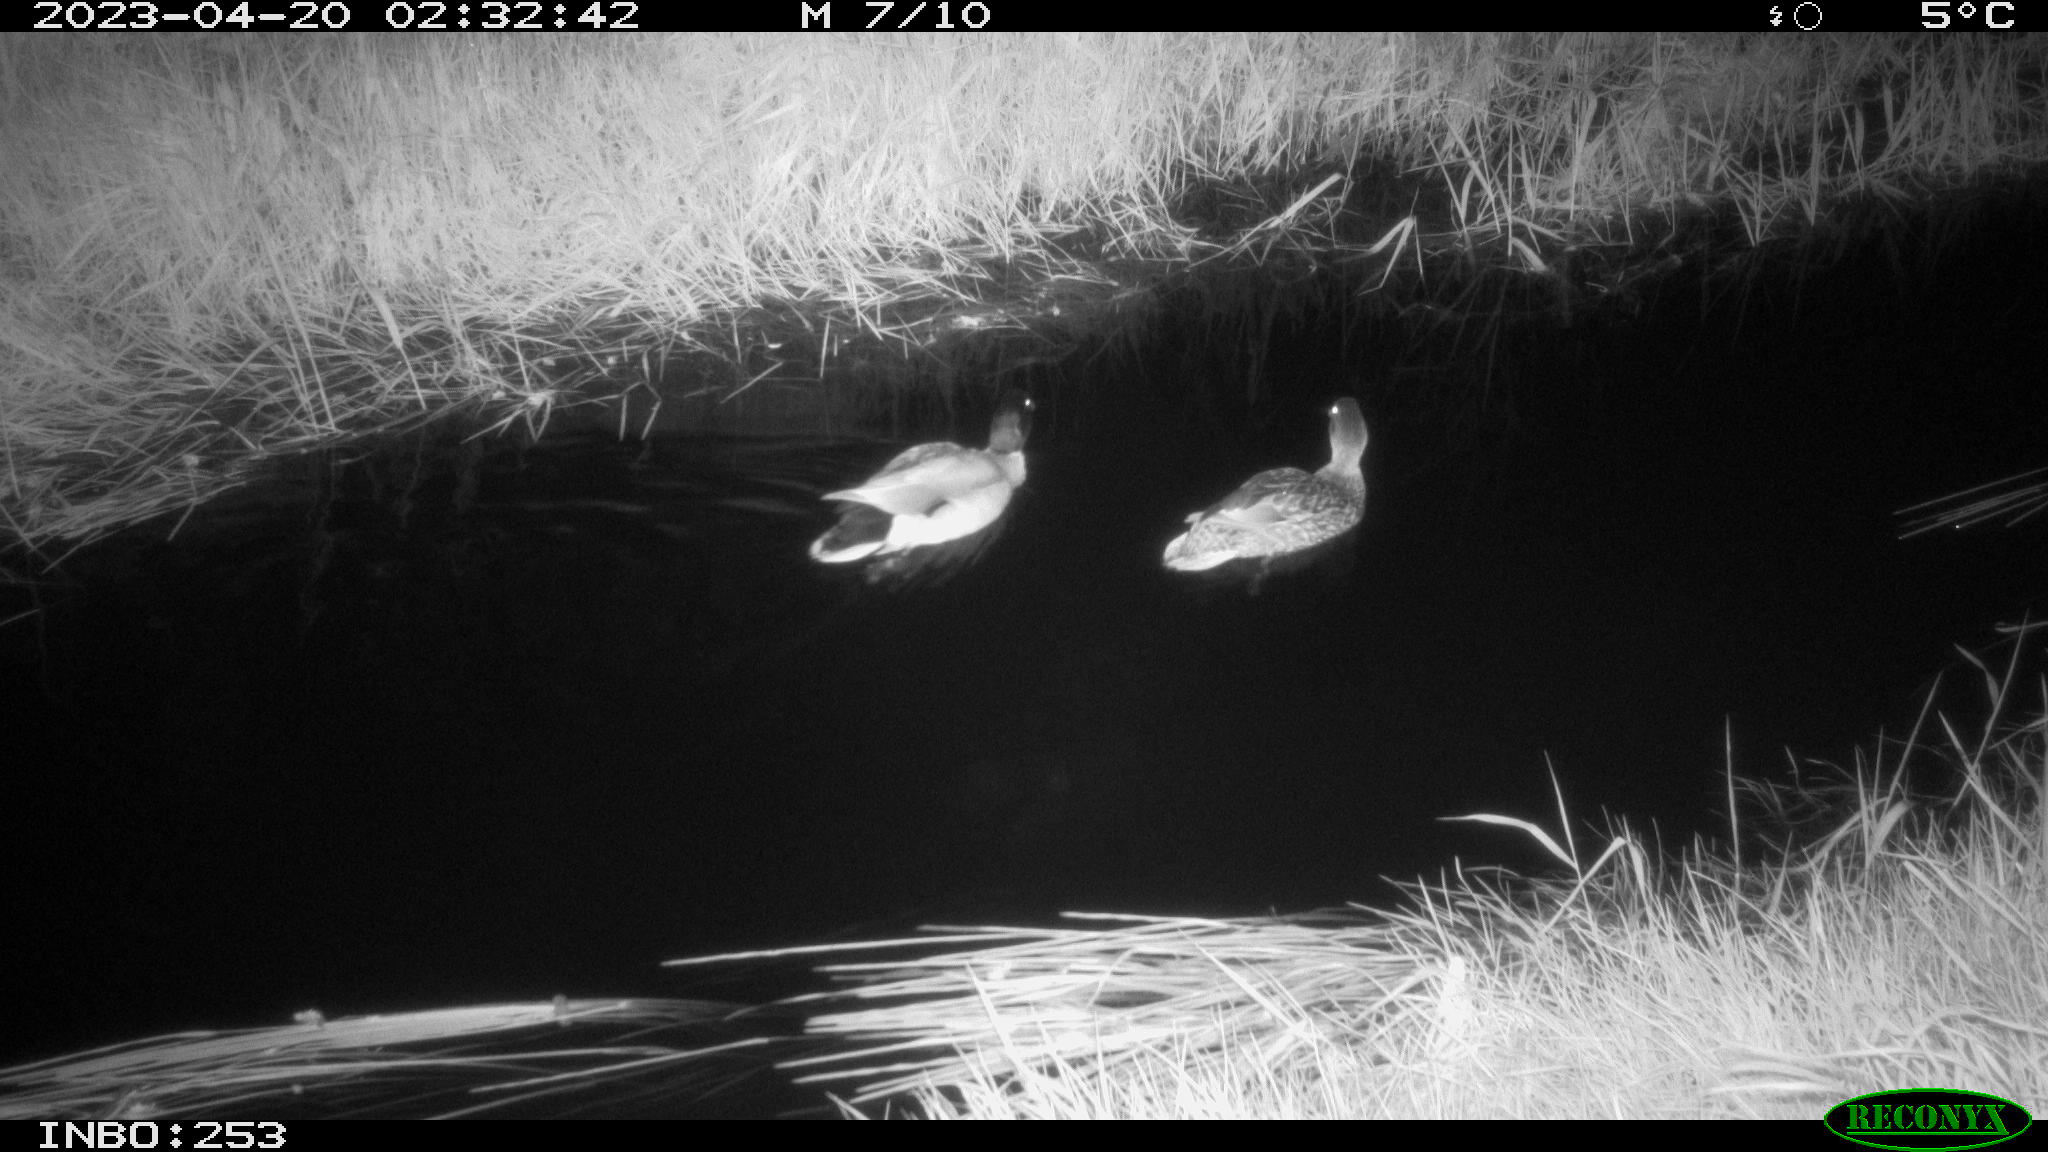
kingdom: Animalia
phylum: Chordata
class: Aves
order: Anseriformes
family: Anatidae
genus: Anas
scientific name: Anas
